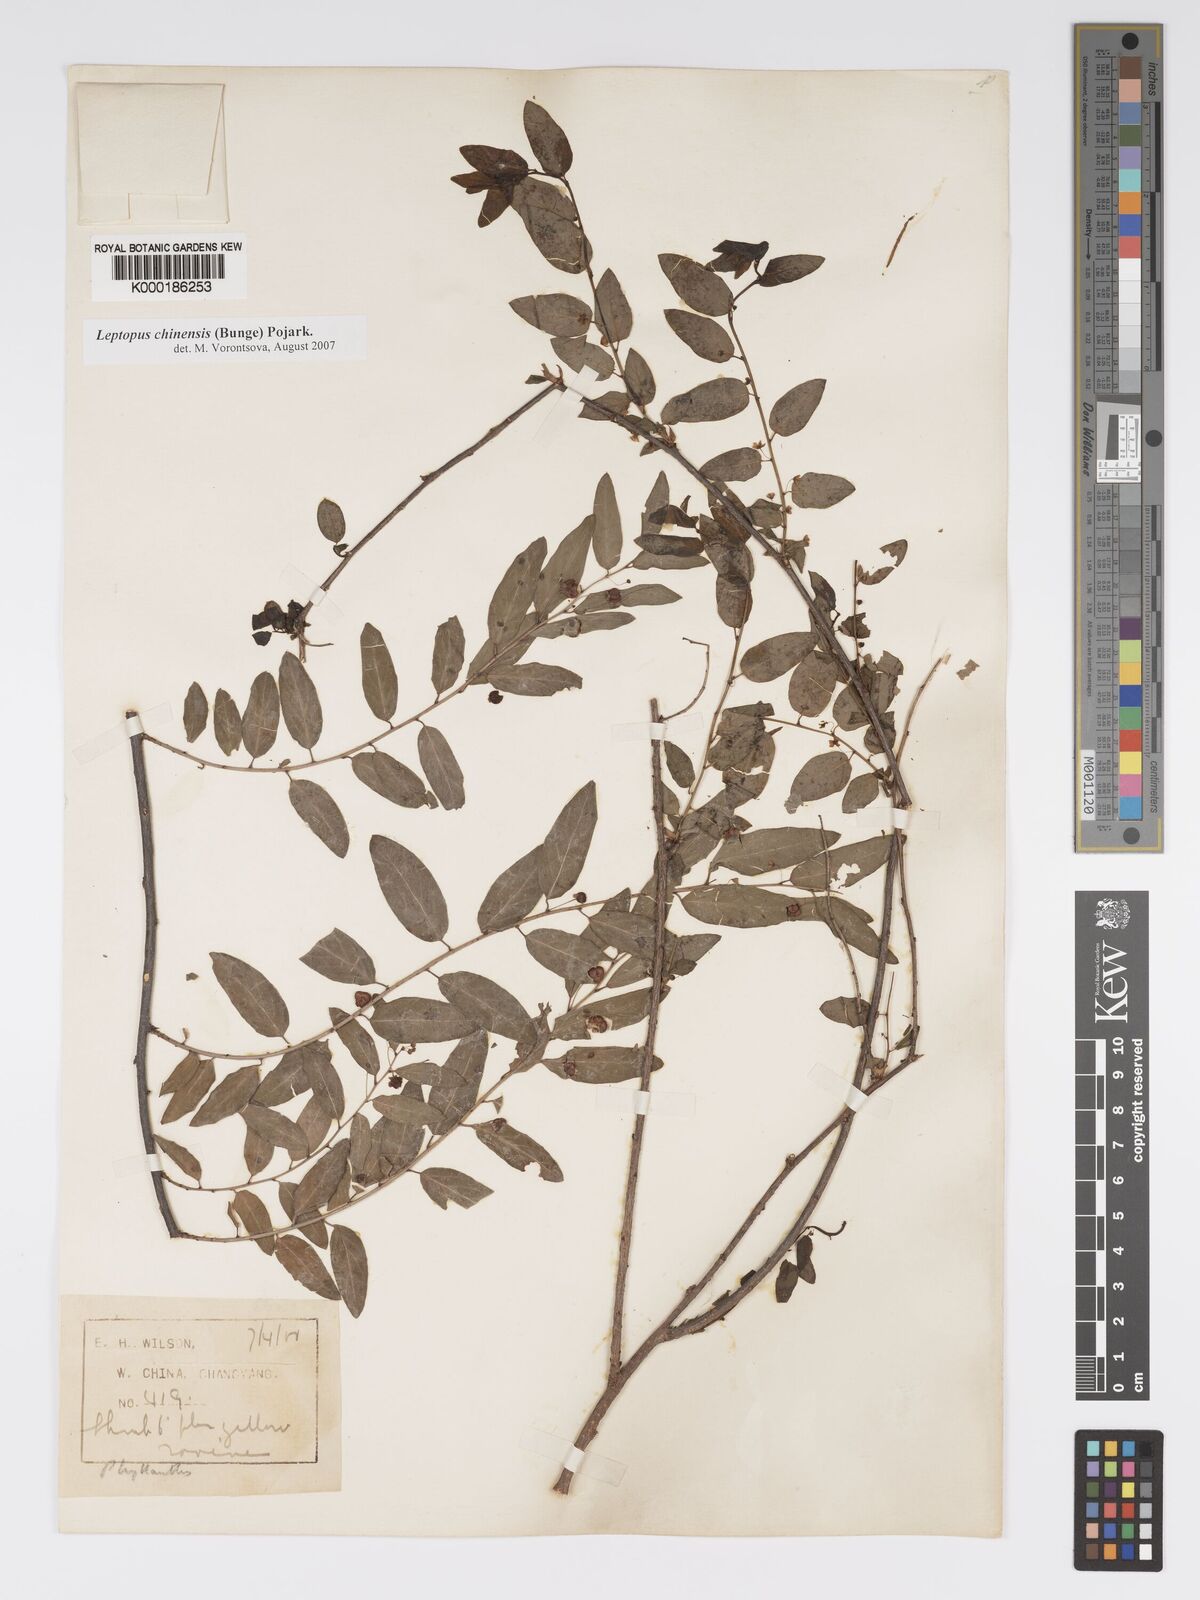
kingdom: Plantae
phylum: Tracheophyta
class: Magnoliopsida
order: Malpighiales
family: Phyllanthaceae
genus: Andrachne
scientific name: Andrachne
